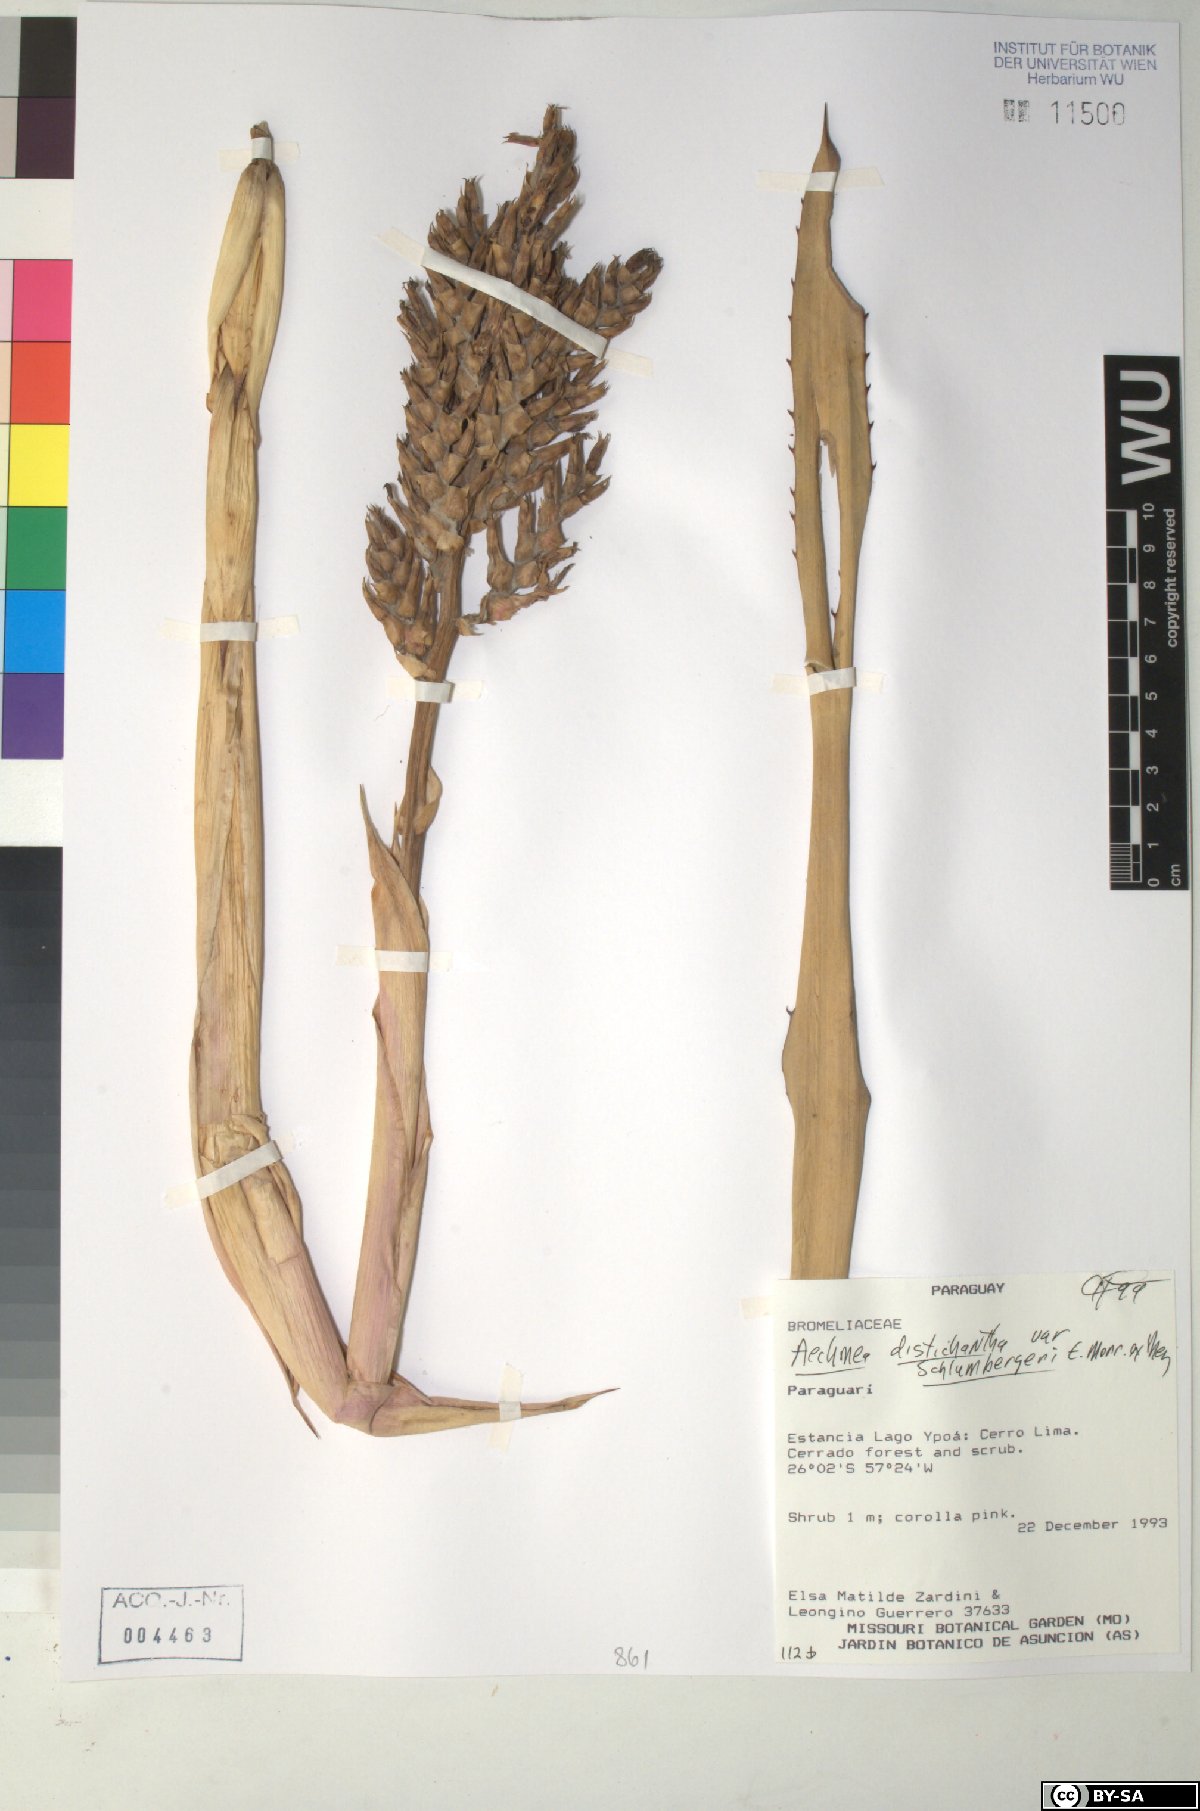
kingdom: Plantae
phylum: Tracheophyta
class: Liliopsida
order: Poales
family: Bromeliaceae
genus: Aechmea
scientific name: Aechmea distichantha
